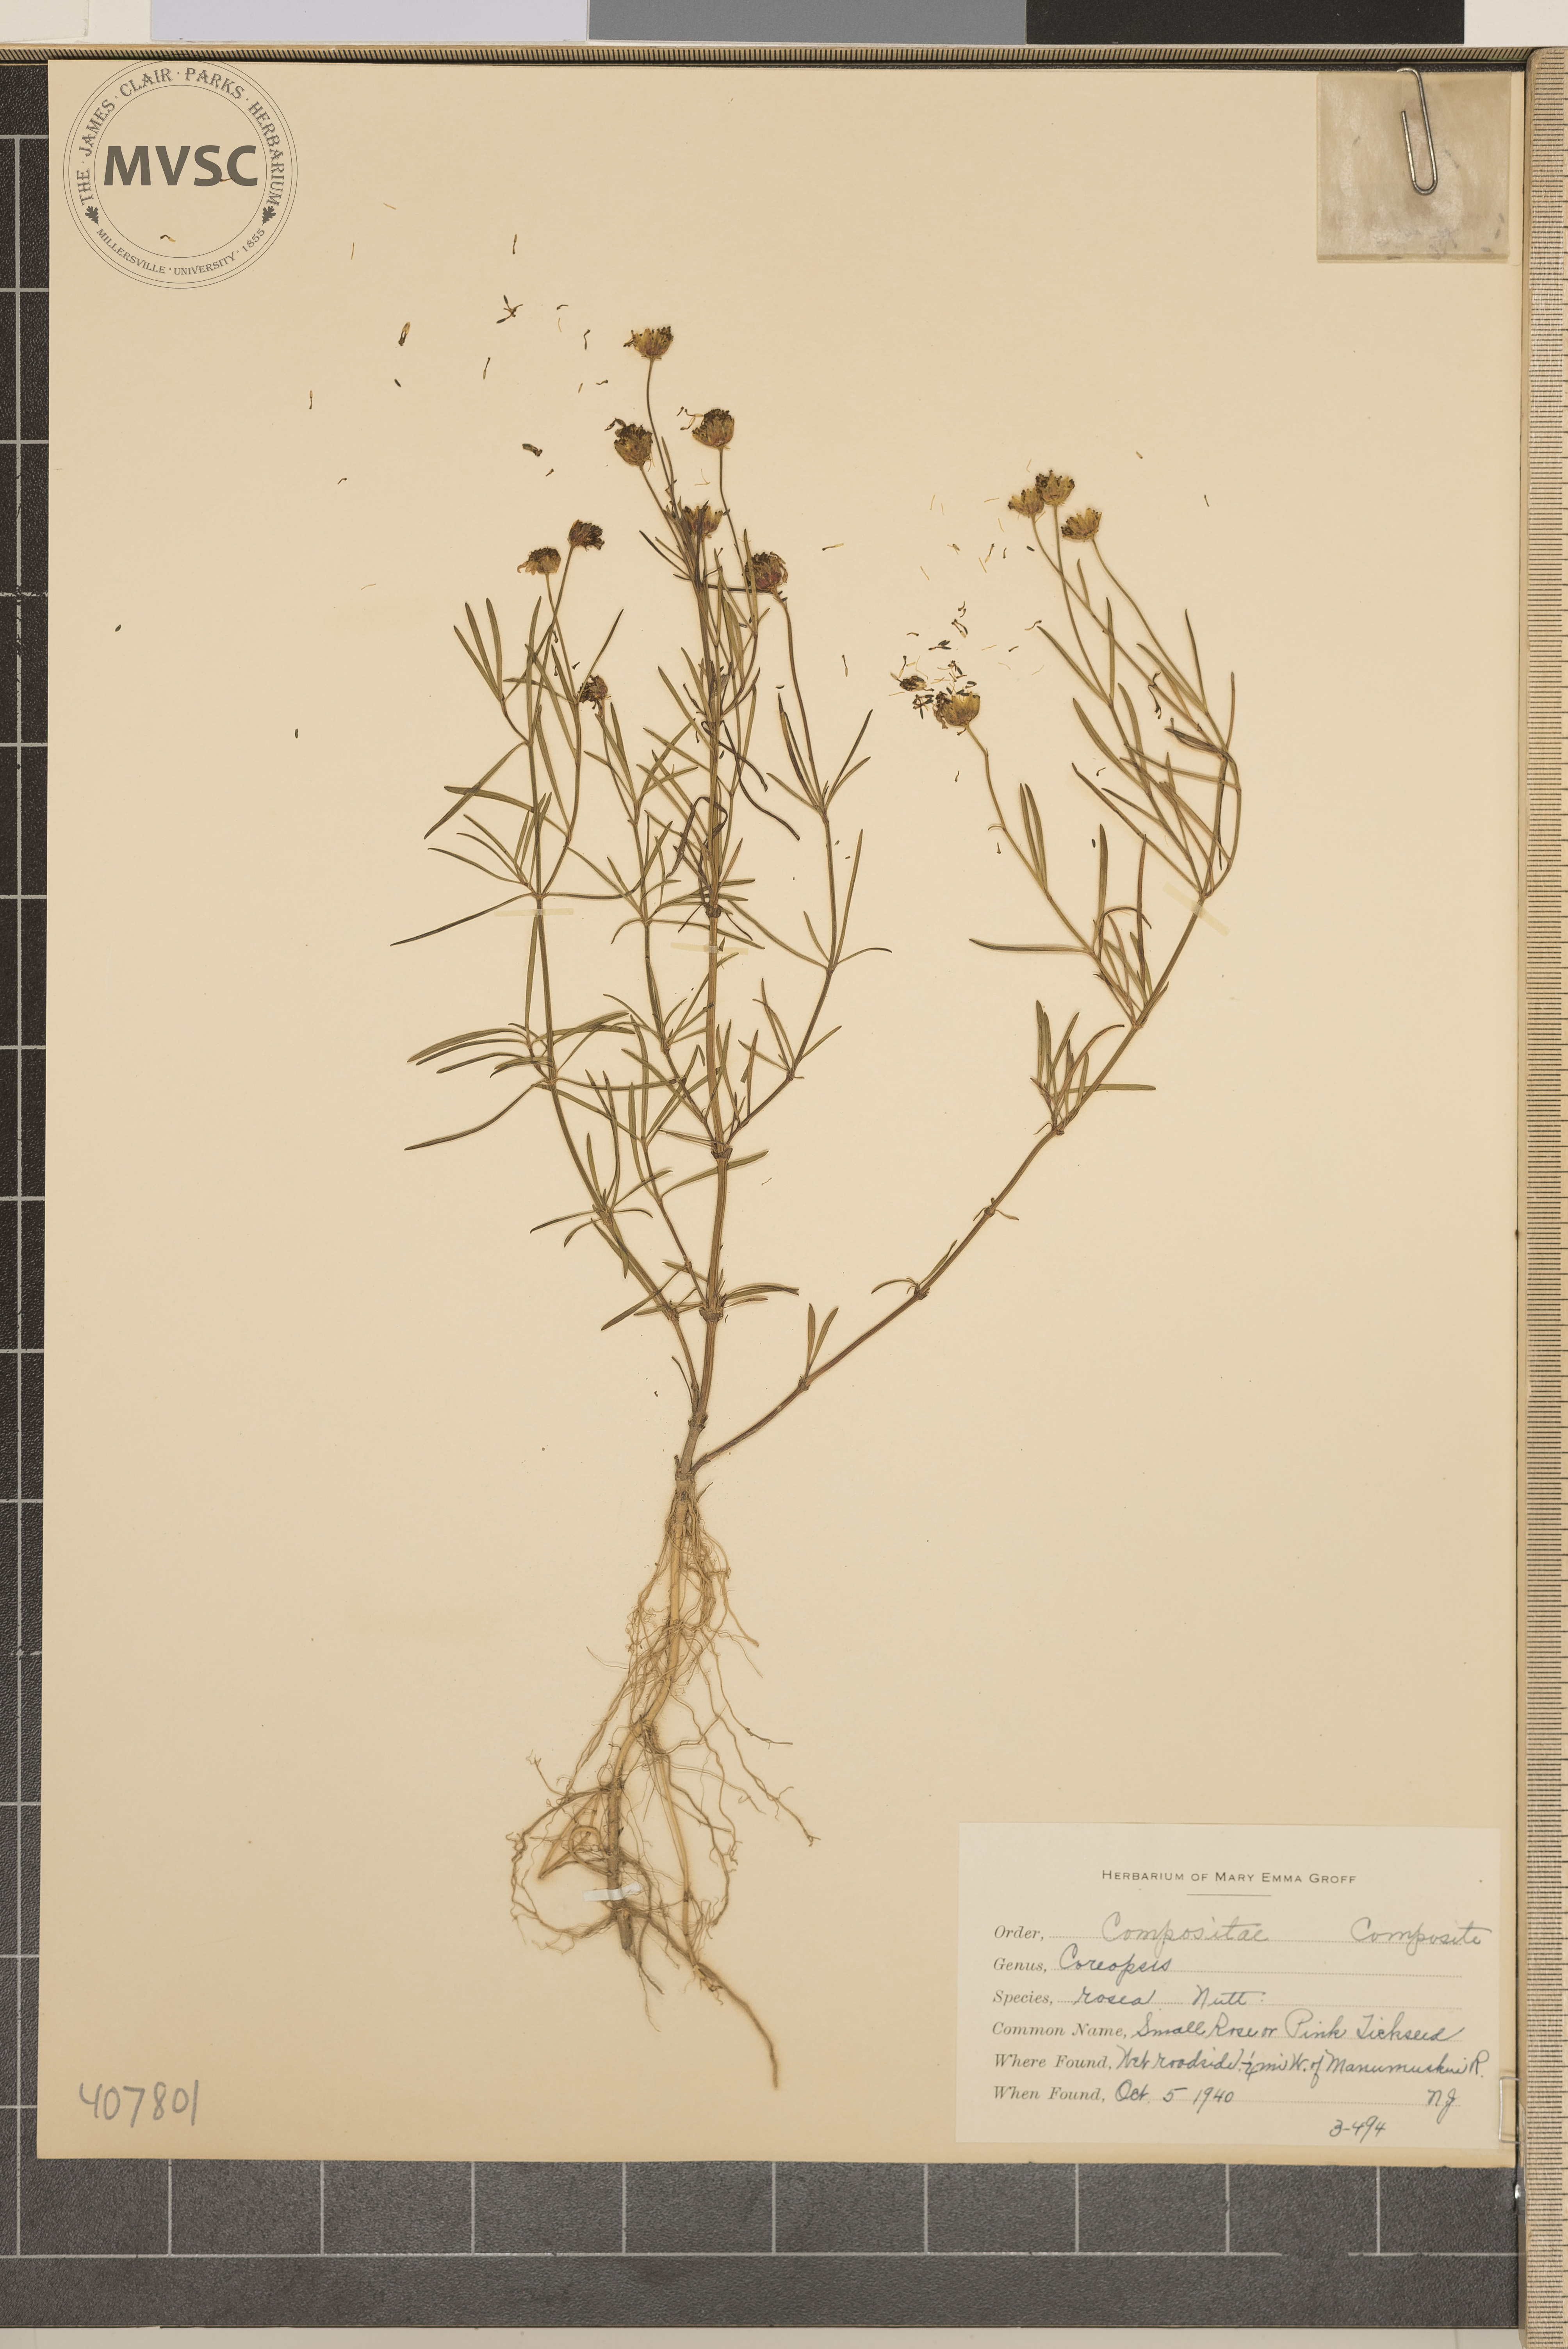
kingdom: Plantae
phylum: Tracheophyta
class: Magnoliopsida
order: Asterales
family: Asteraceae
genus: Coreopsis
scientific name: Coreopsis rosea
